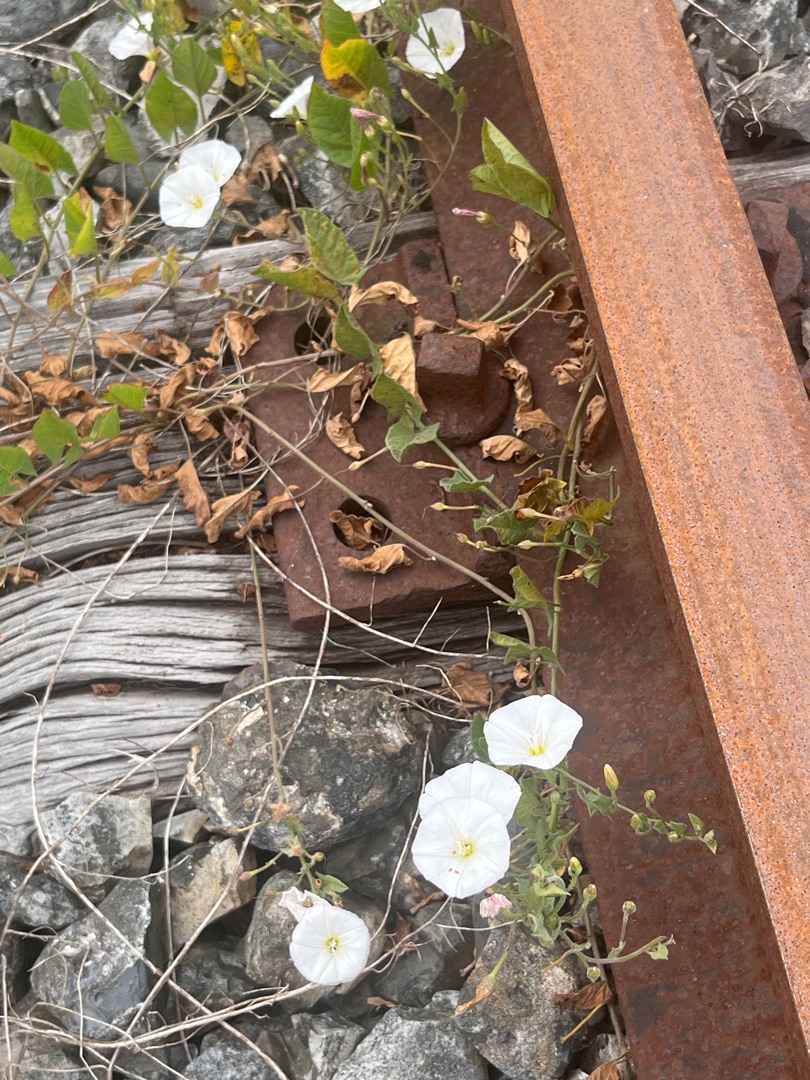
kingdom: Plantae
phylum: Tracheophyta
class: Magnoliopsida
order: Solanales
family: Convolvulaceae
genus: Convolvulus
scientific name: Convolvulus arvensis
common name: Ager-snerle
